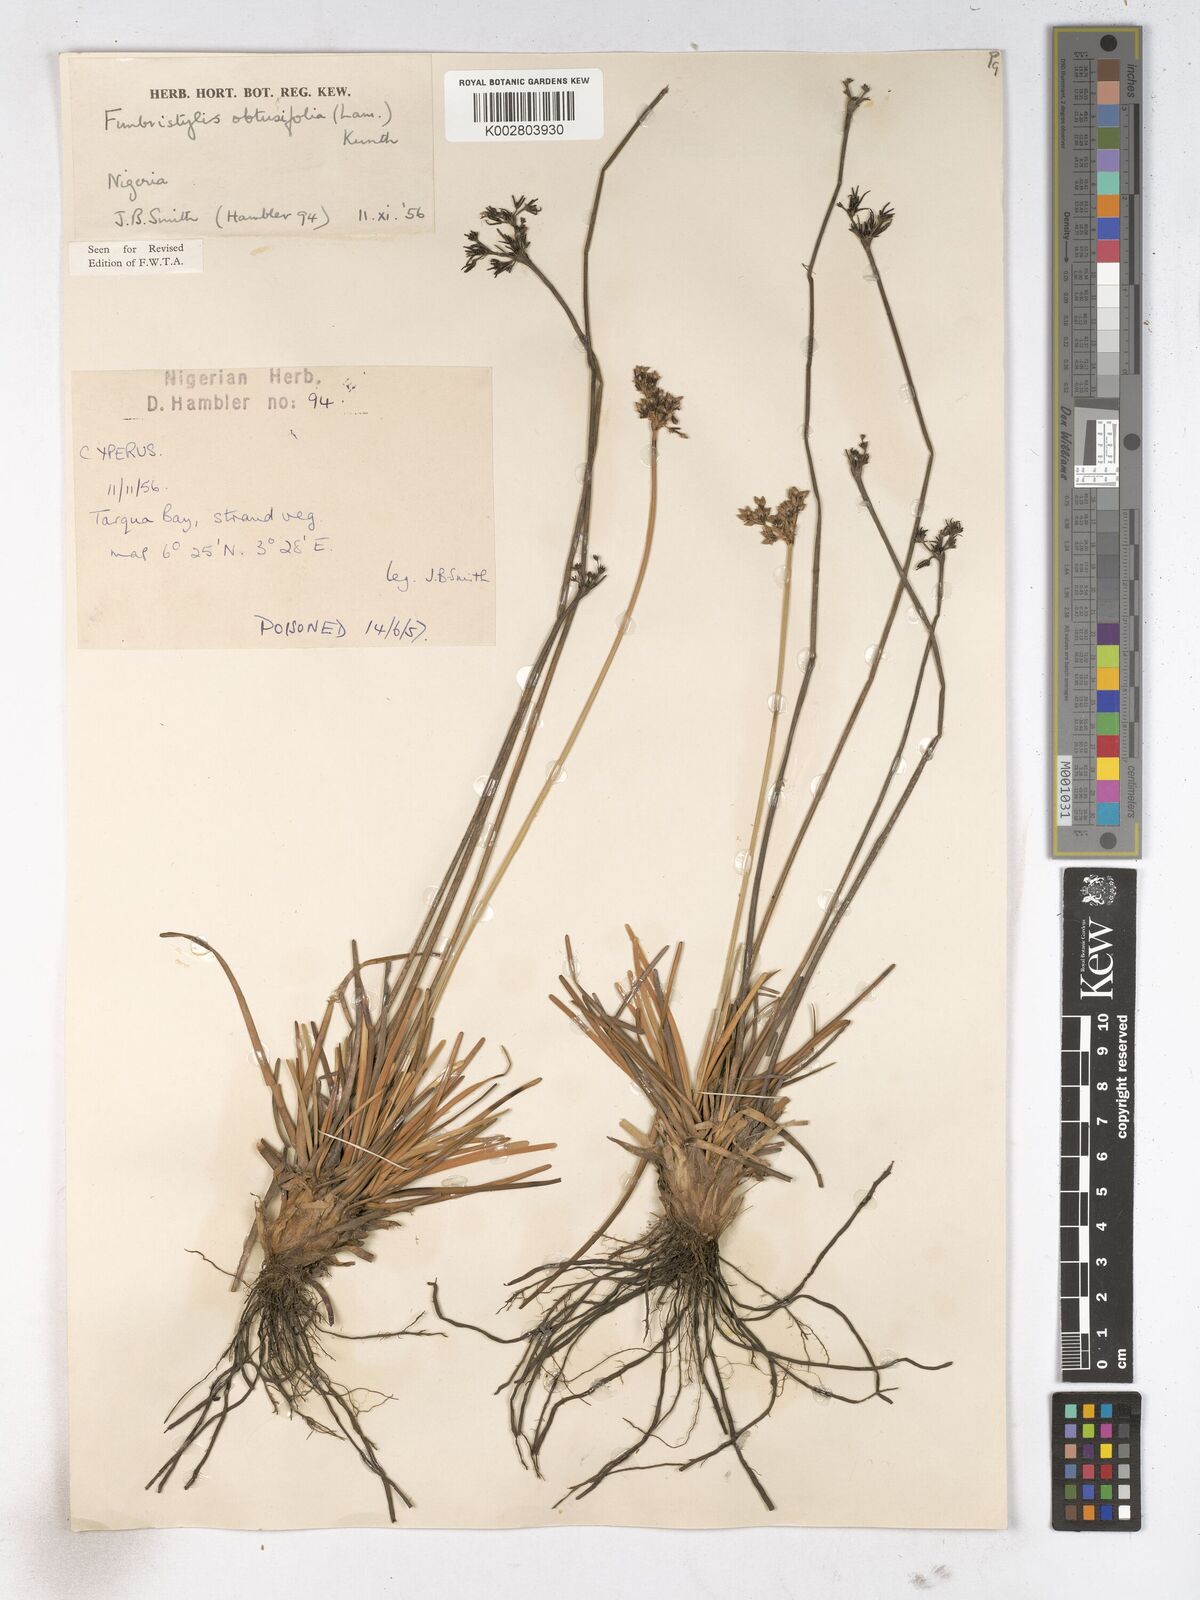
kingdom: Plantae
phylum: Tracheophyta
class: Liliopsida
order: Poales
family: Cyperaceae
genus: Fimbristylis
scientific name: Fimbristylis cymosa
